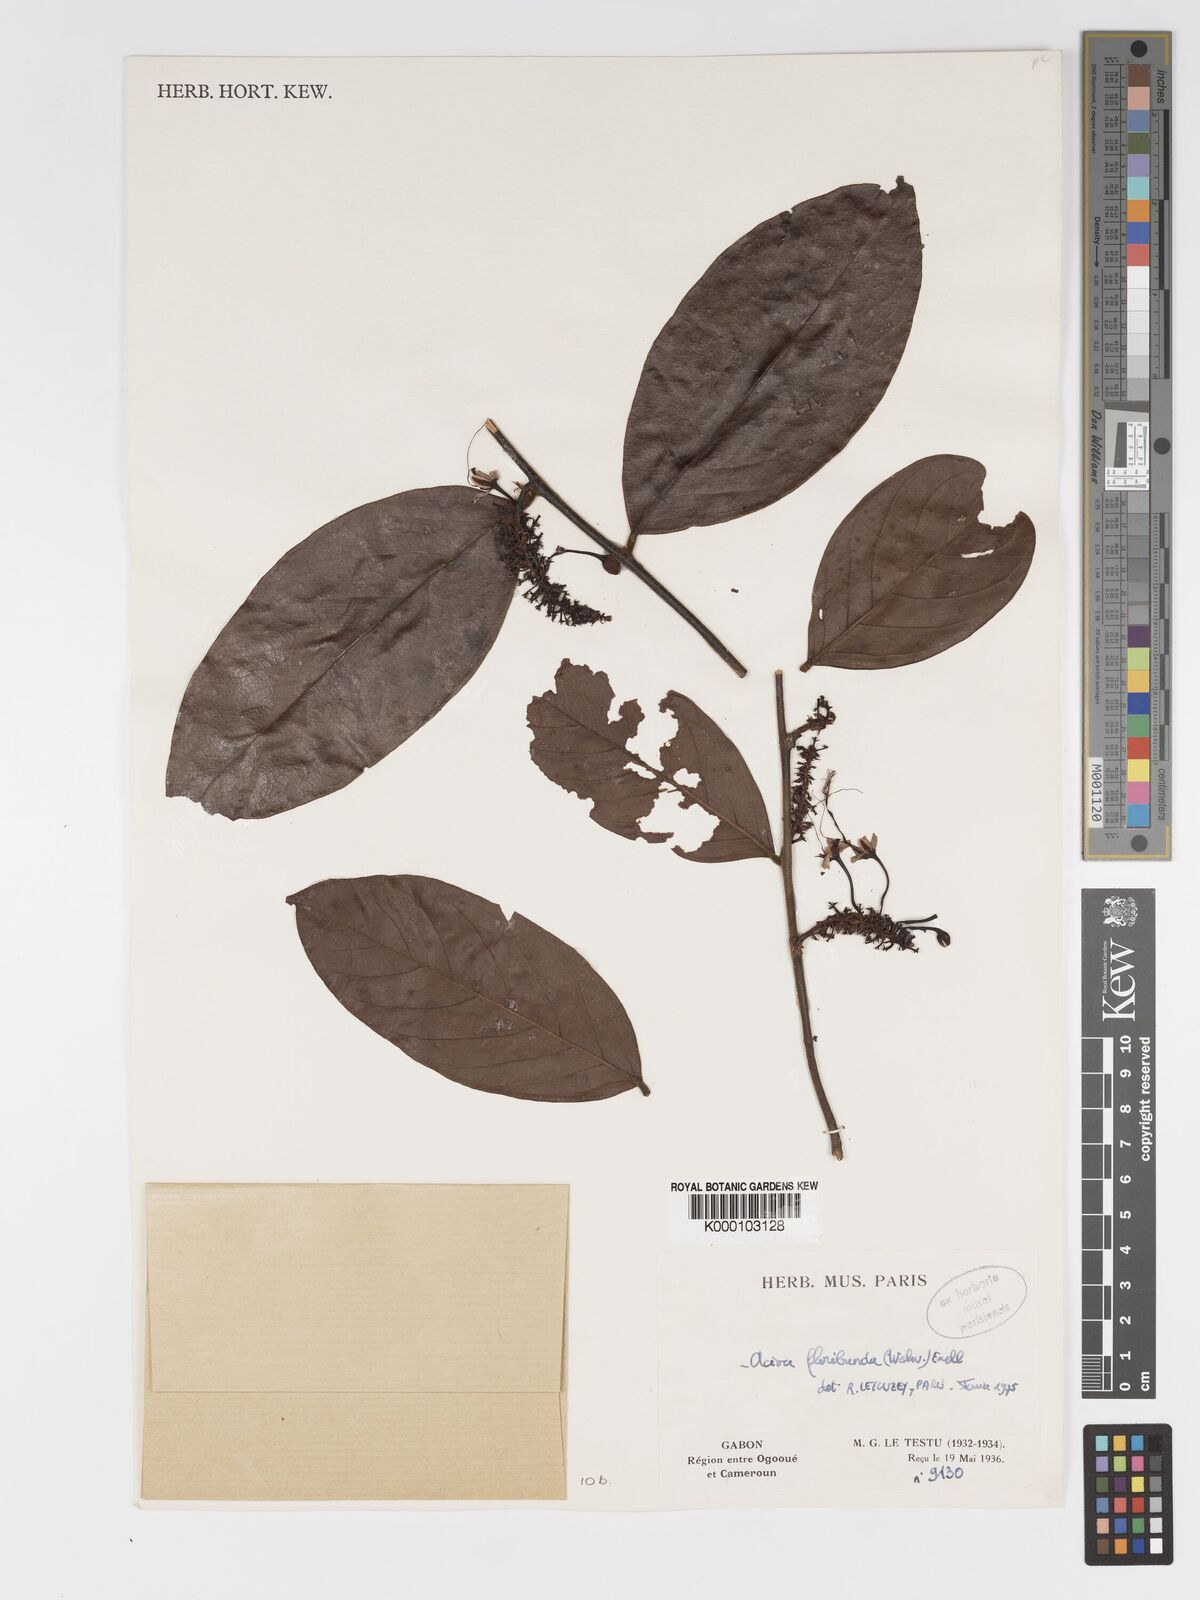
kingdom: Plantae
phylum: Tracheophyta
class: Magnoliopsida
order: Malpighiales
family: Chrysobalanaceae
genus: Dactyladenia
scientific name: Dactyladenia floribunda
